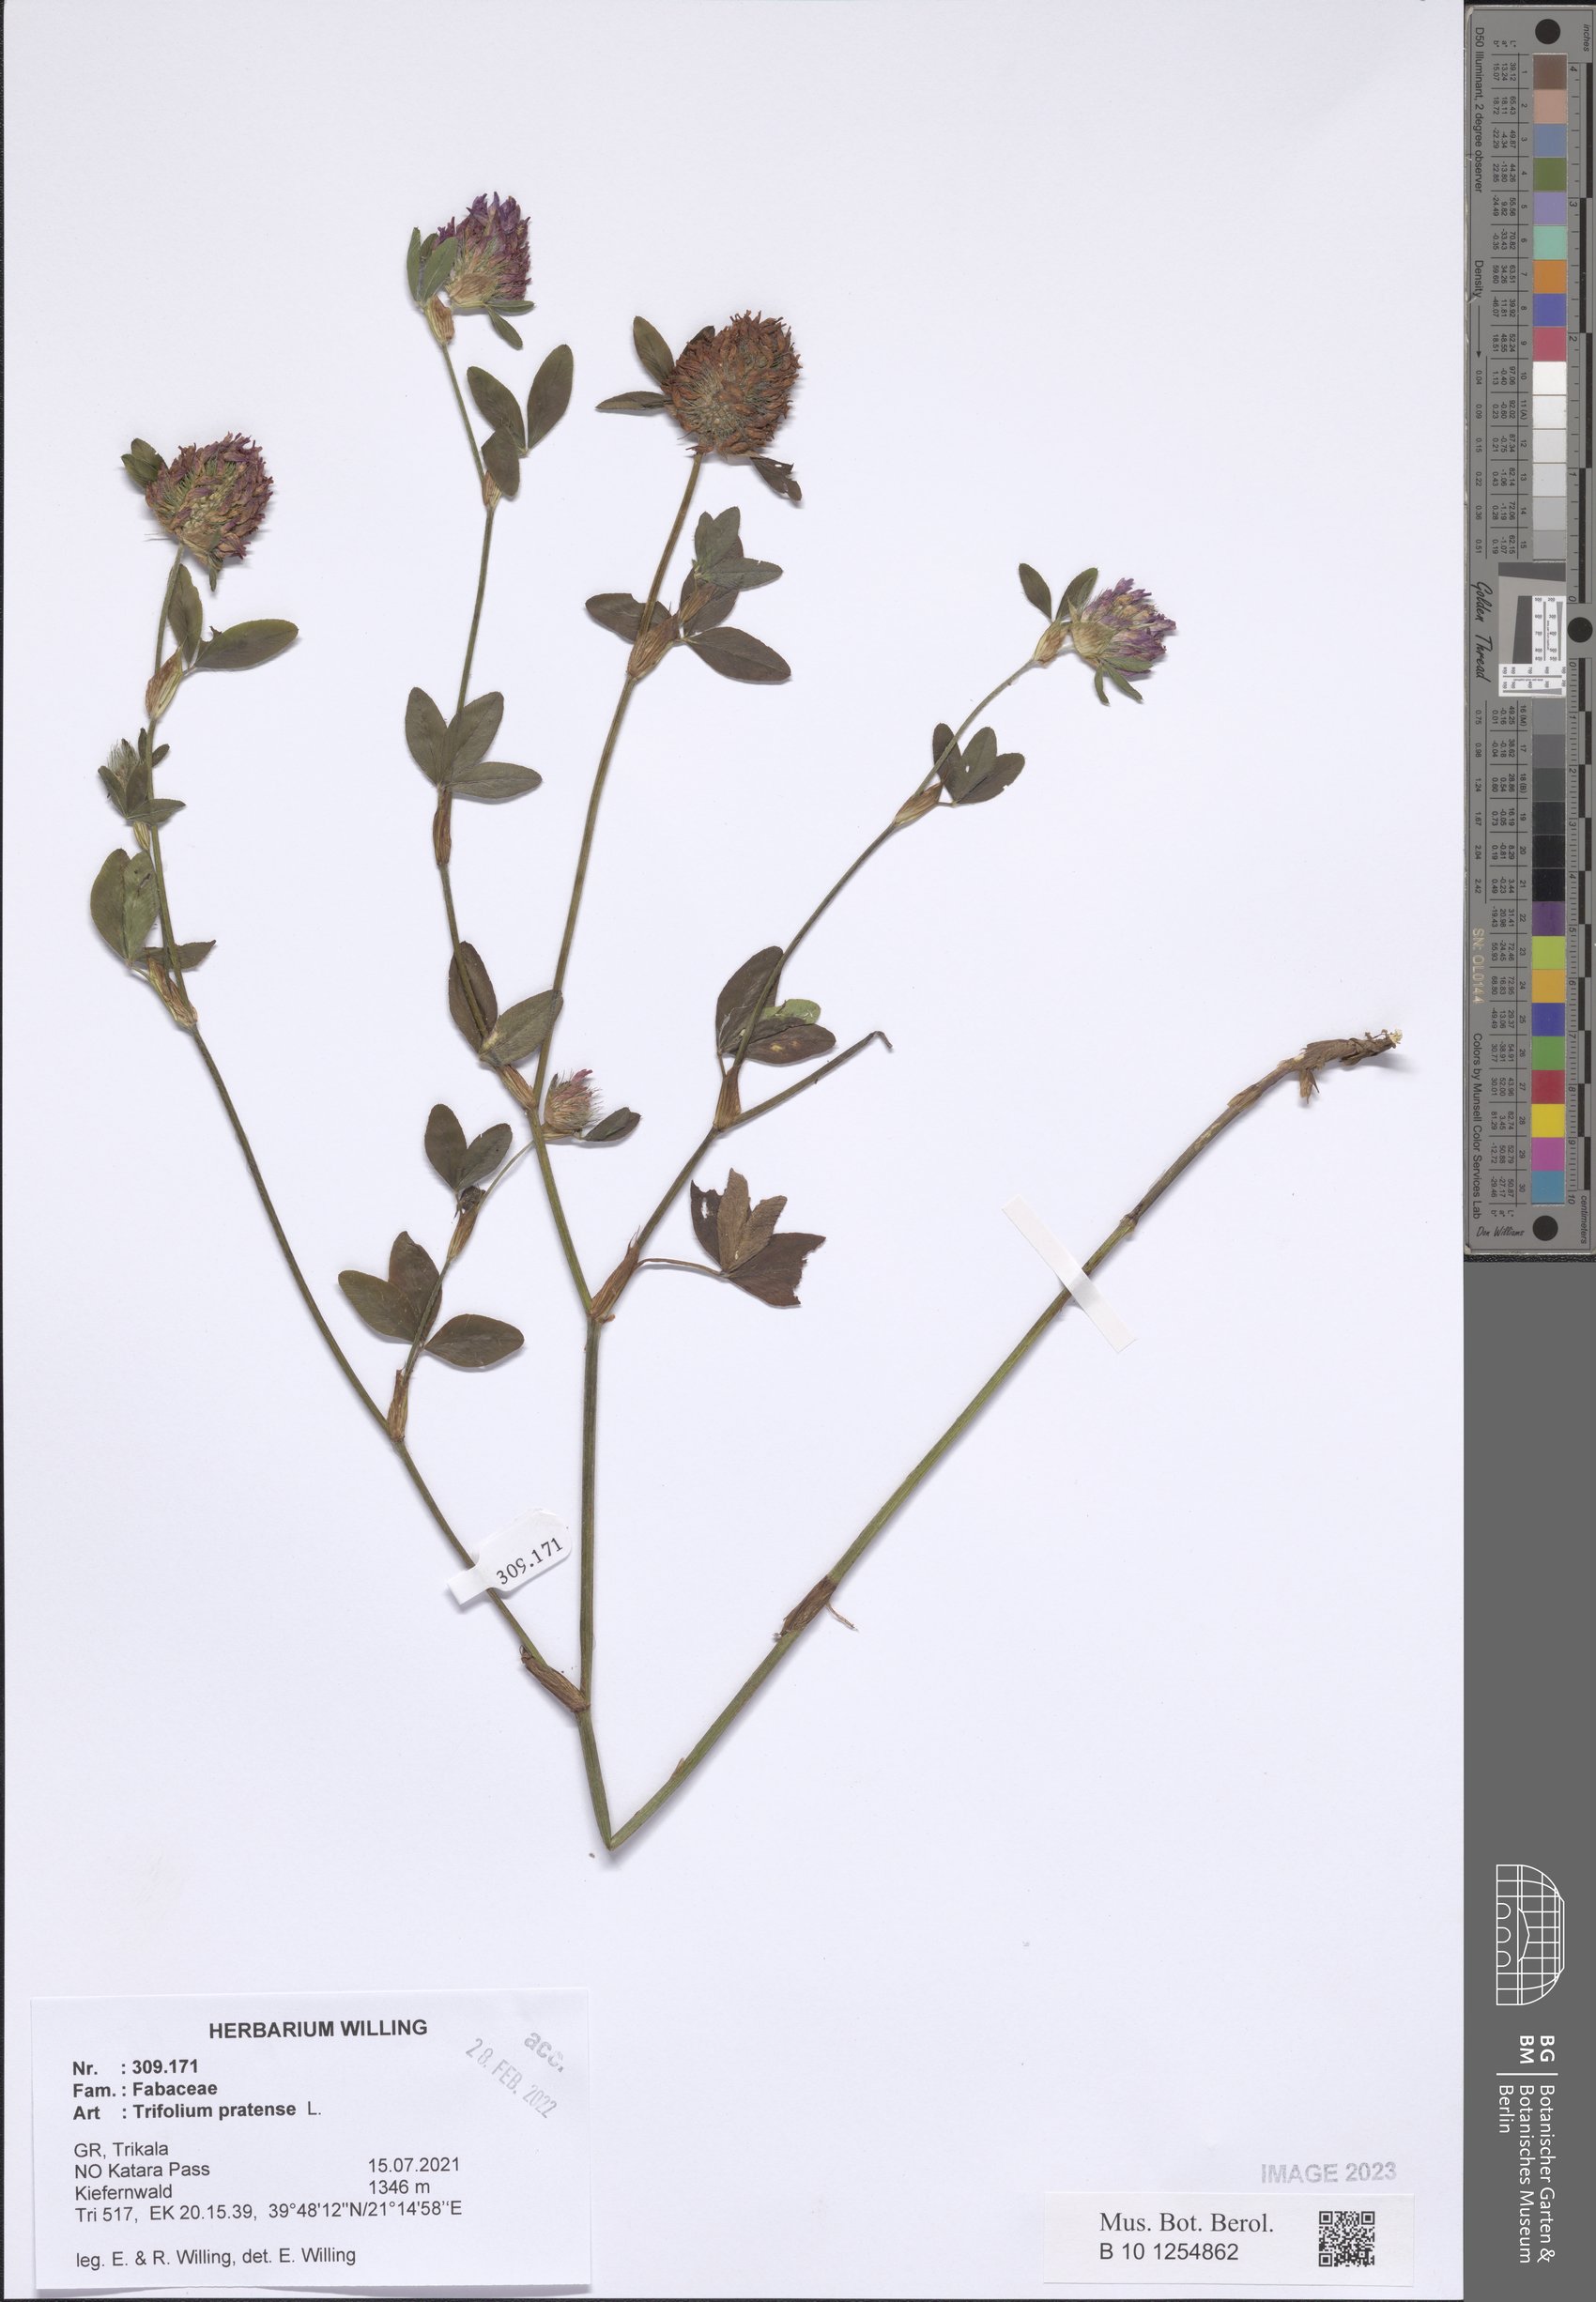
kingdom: Plantae
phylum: Tracheophyta
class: Magnoliopsida
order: Fabales
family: Fabaceae
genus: Trifolium
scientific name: Trifolium pratense
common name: Red clover
